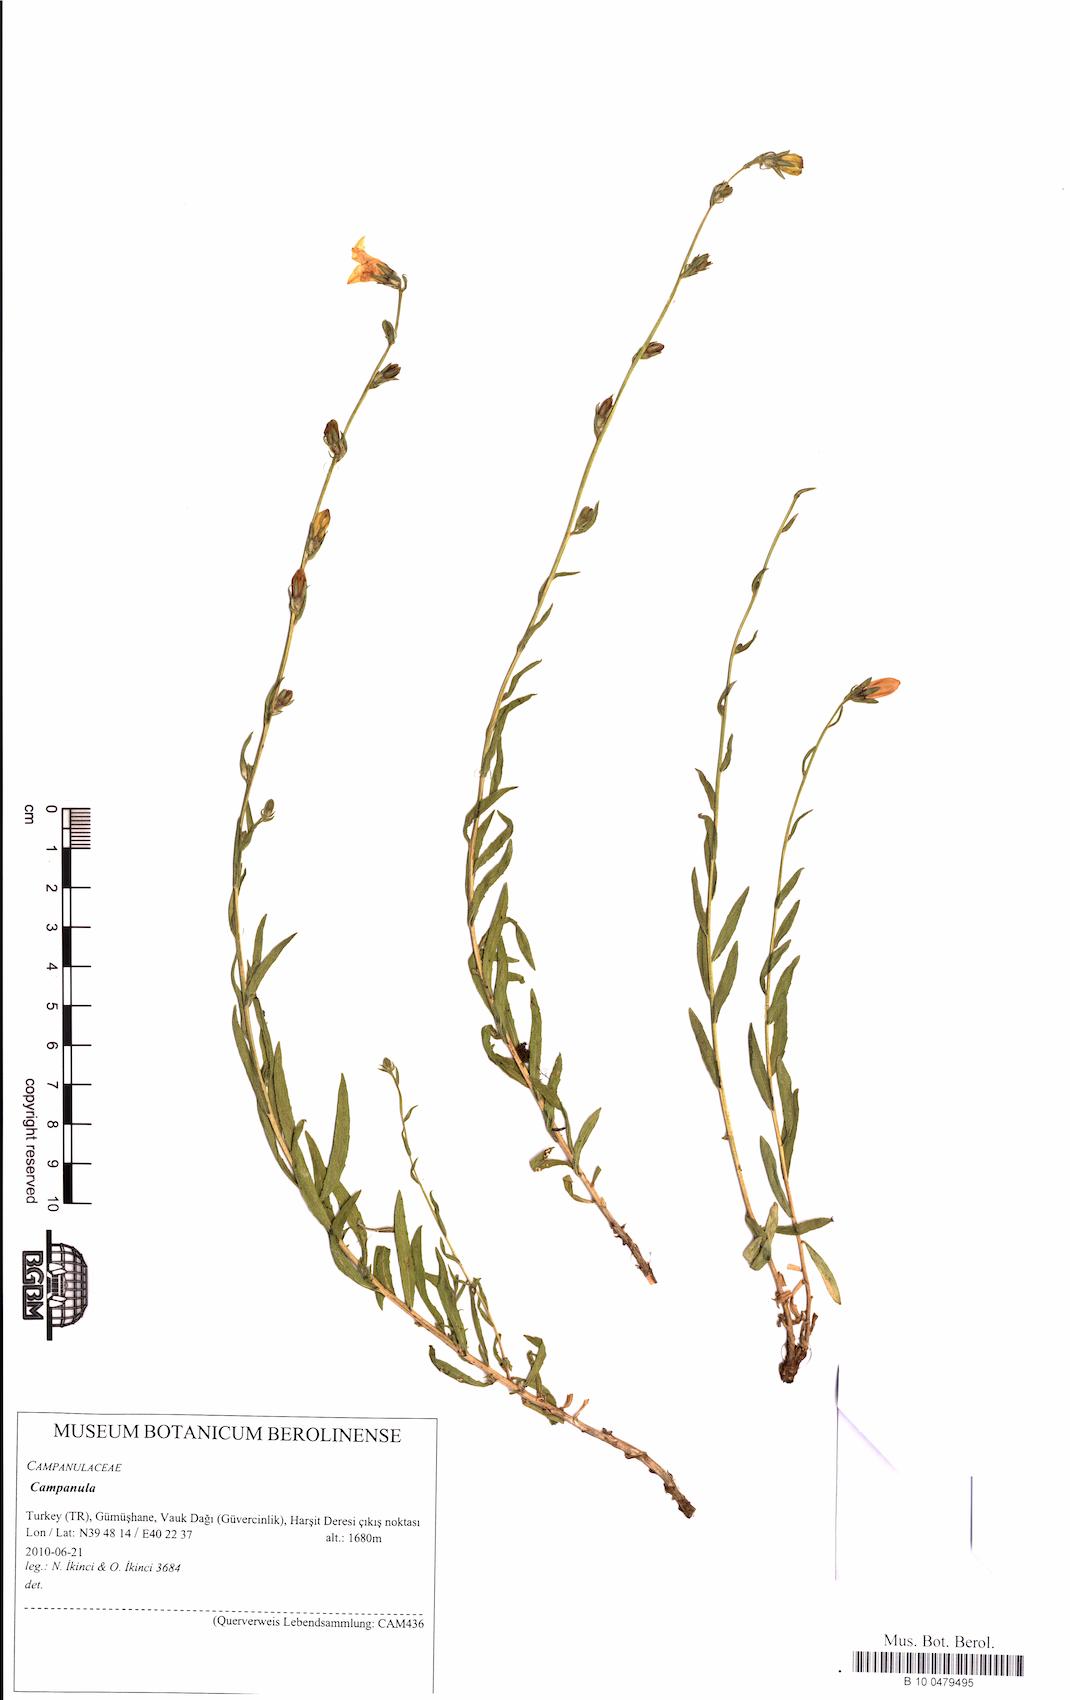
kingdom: Plantae
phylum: Tracheophyta
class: Magnoliopsida
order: Asterales
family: Campanulaceae
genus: Campanula
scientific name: Campanula
